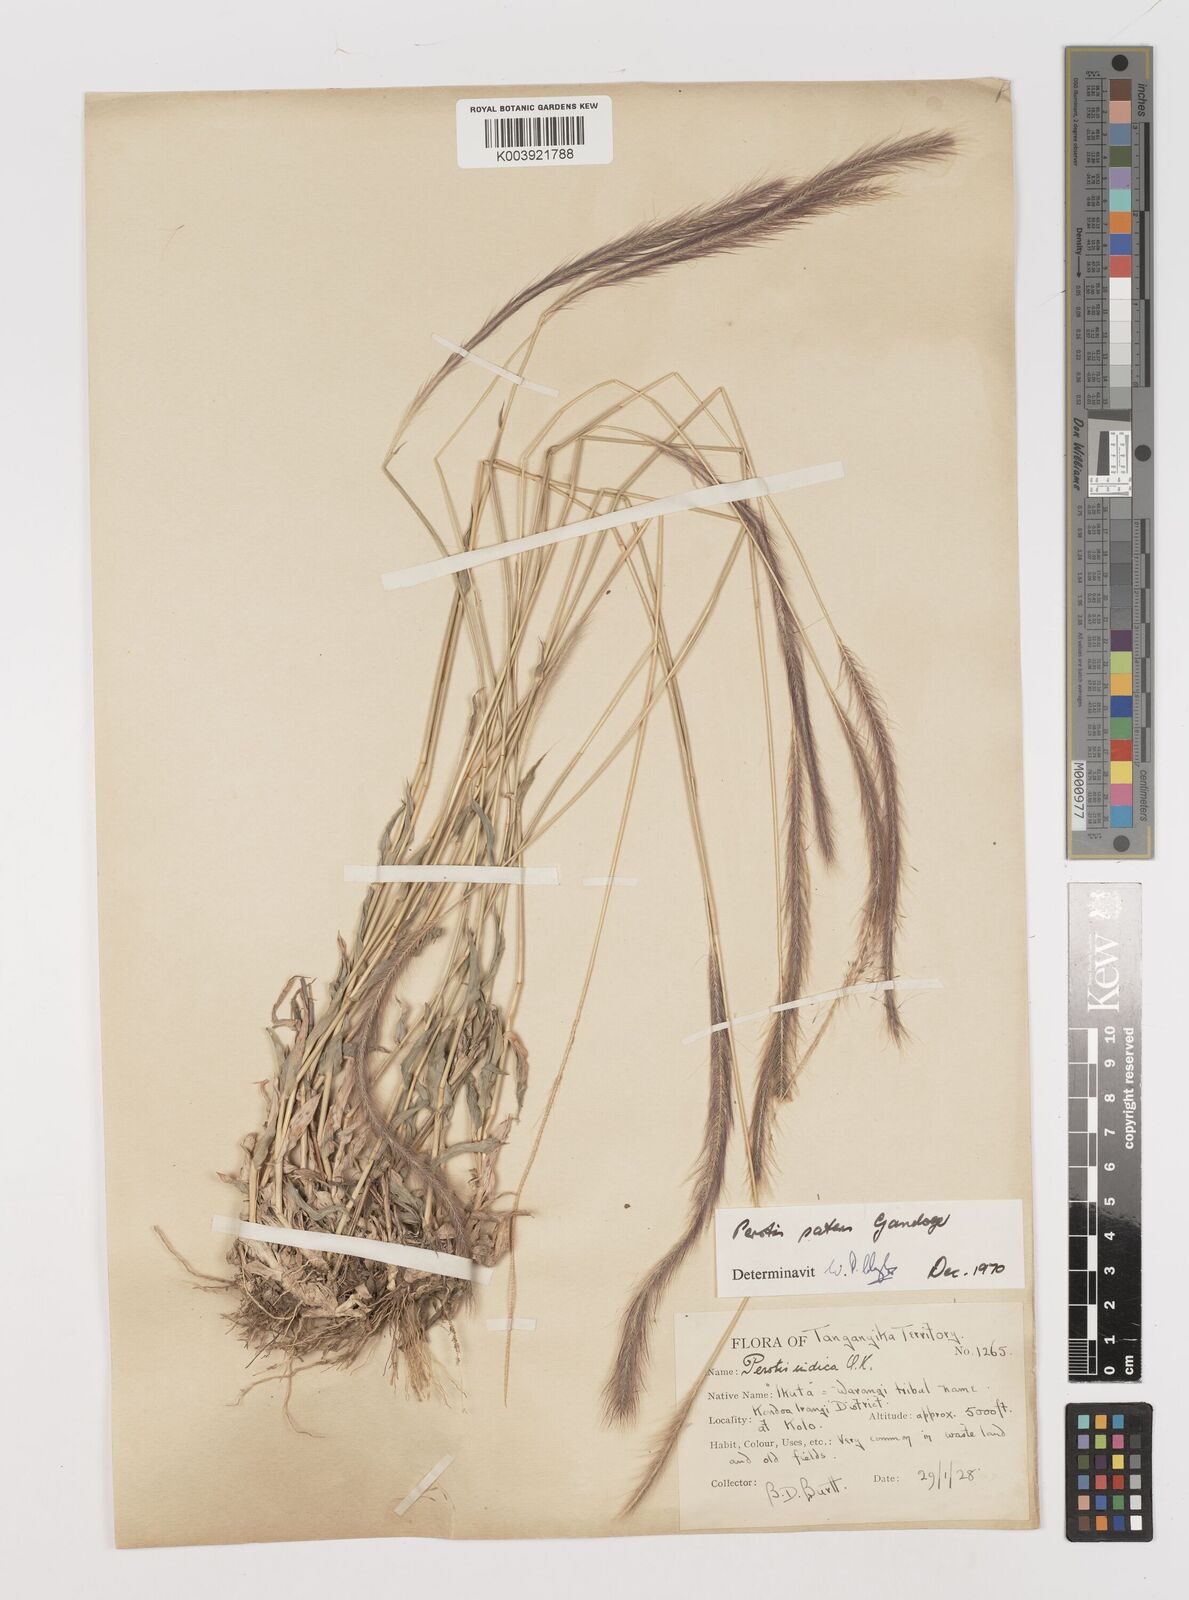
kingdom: Plantae
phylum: Tracheophyta
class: Liliopsida
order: Poales
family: Poaceae
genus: Perotis
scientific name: Perotis patens
